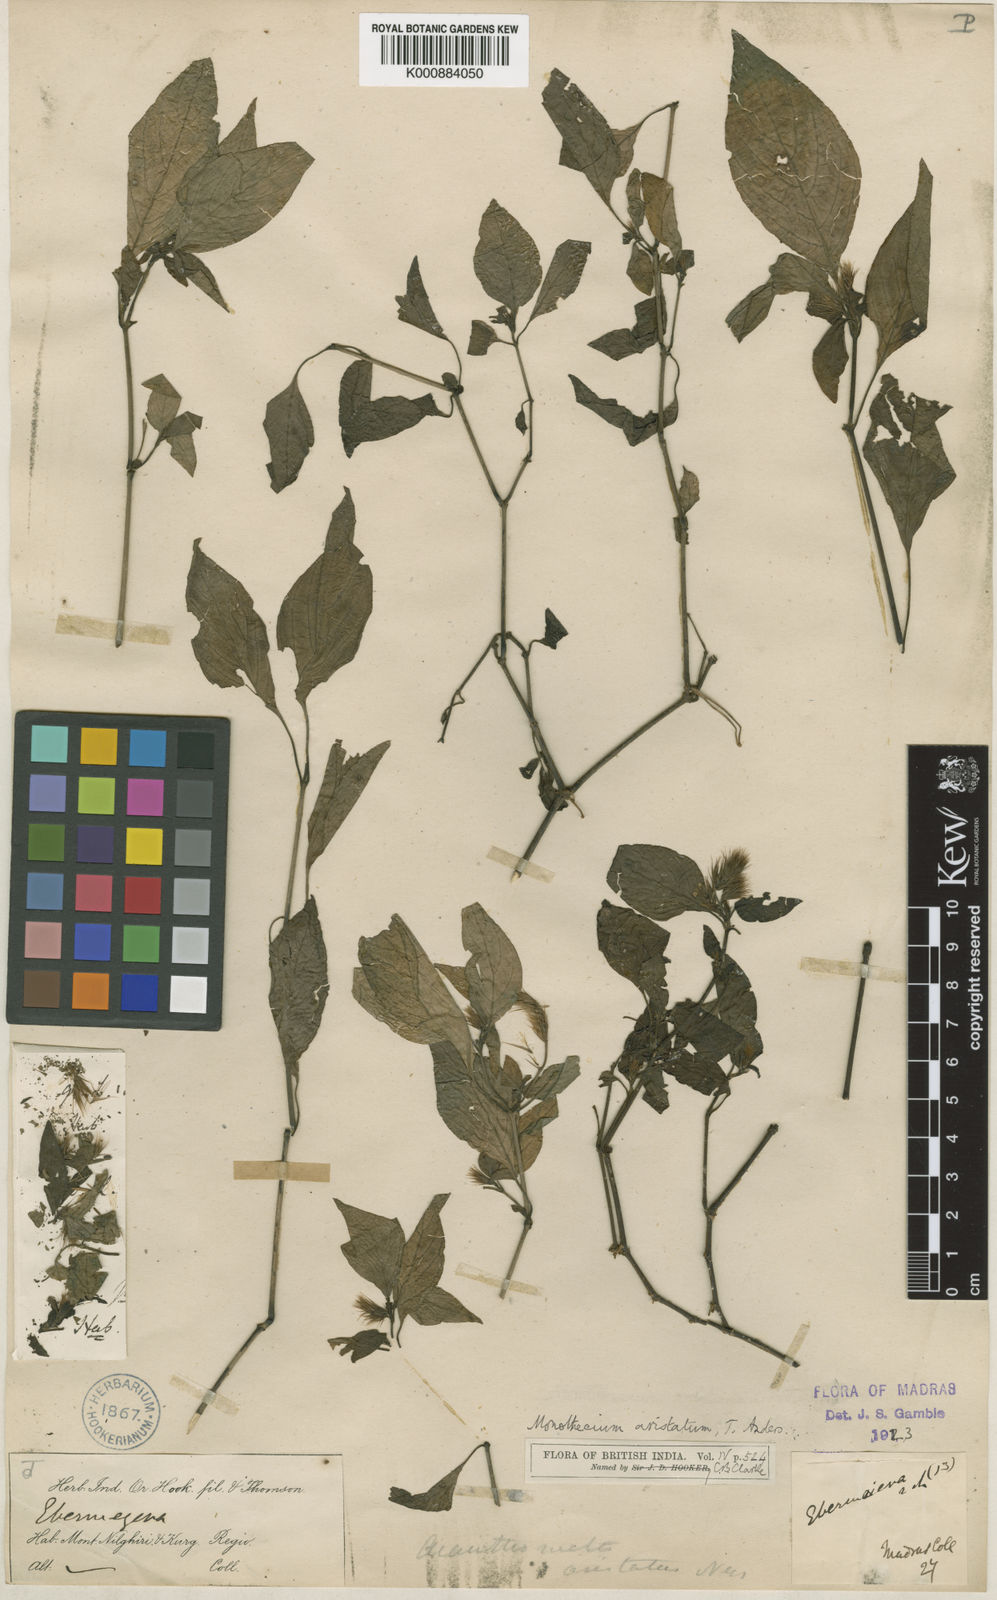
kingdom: Plantae
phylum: Tracheophyta
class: Magnoliopsida
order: Lamiales
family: Acanthaceae
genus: Monothecium
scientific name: Monothecium
